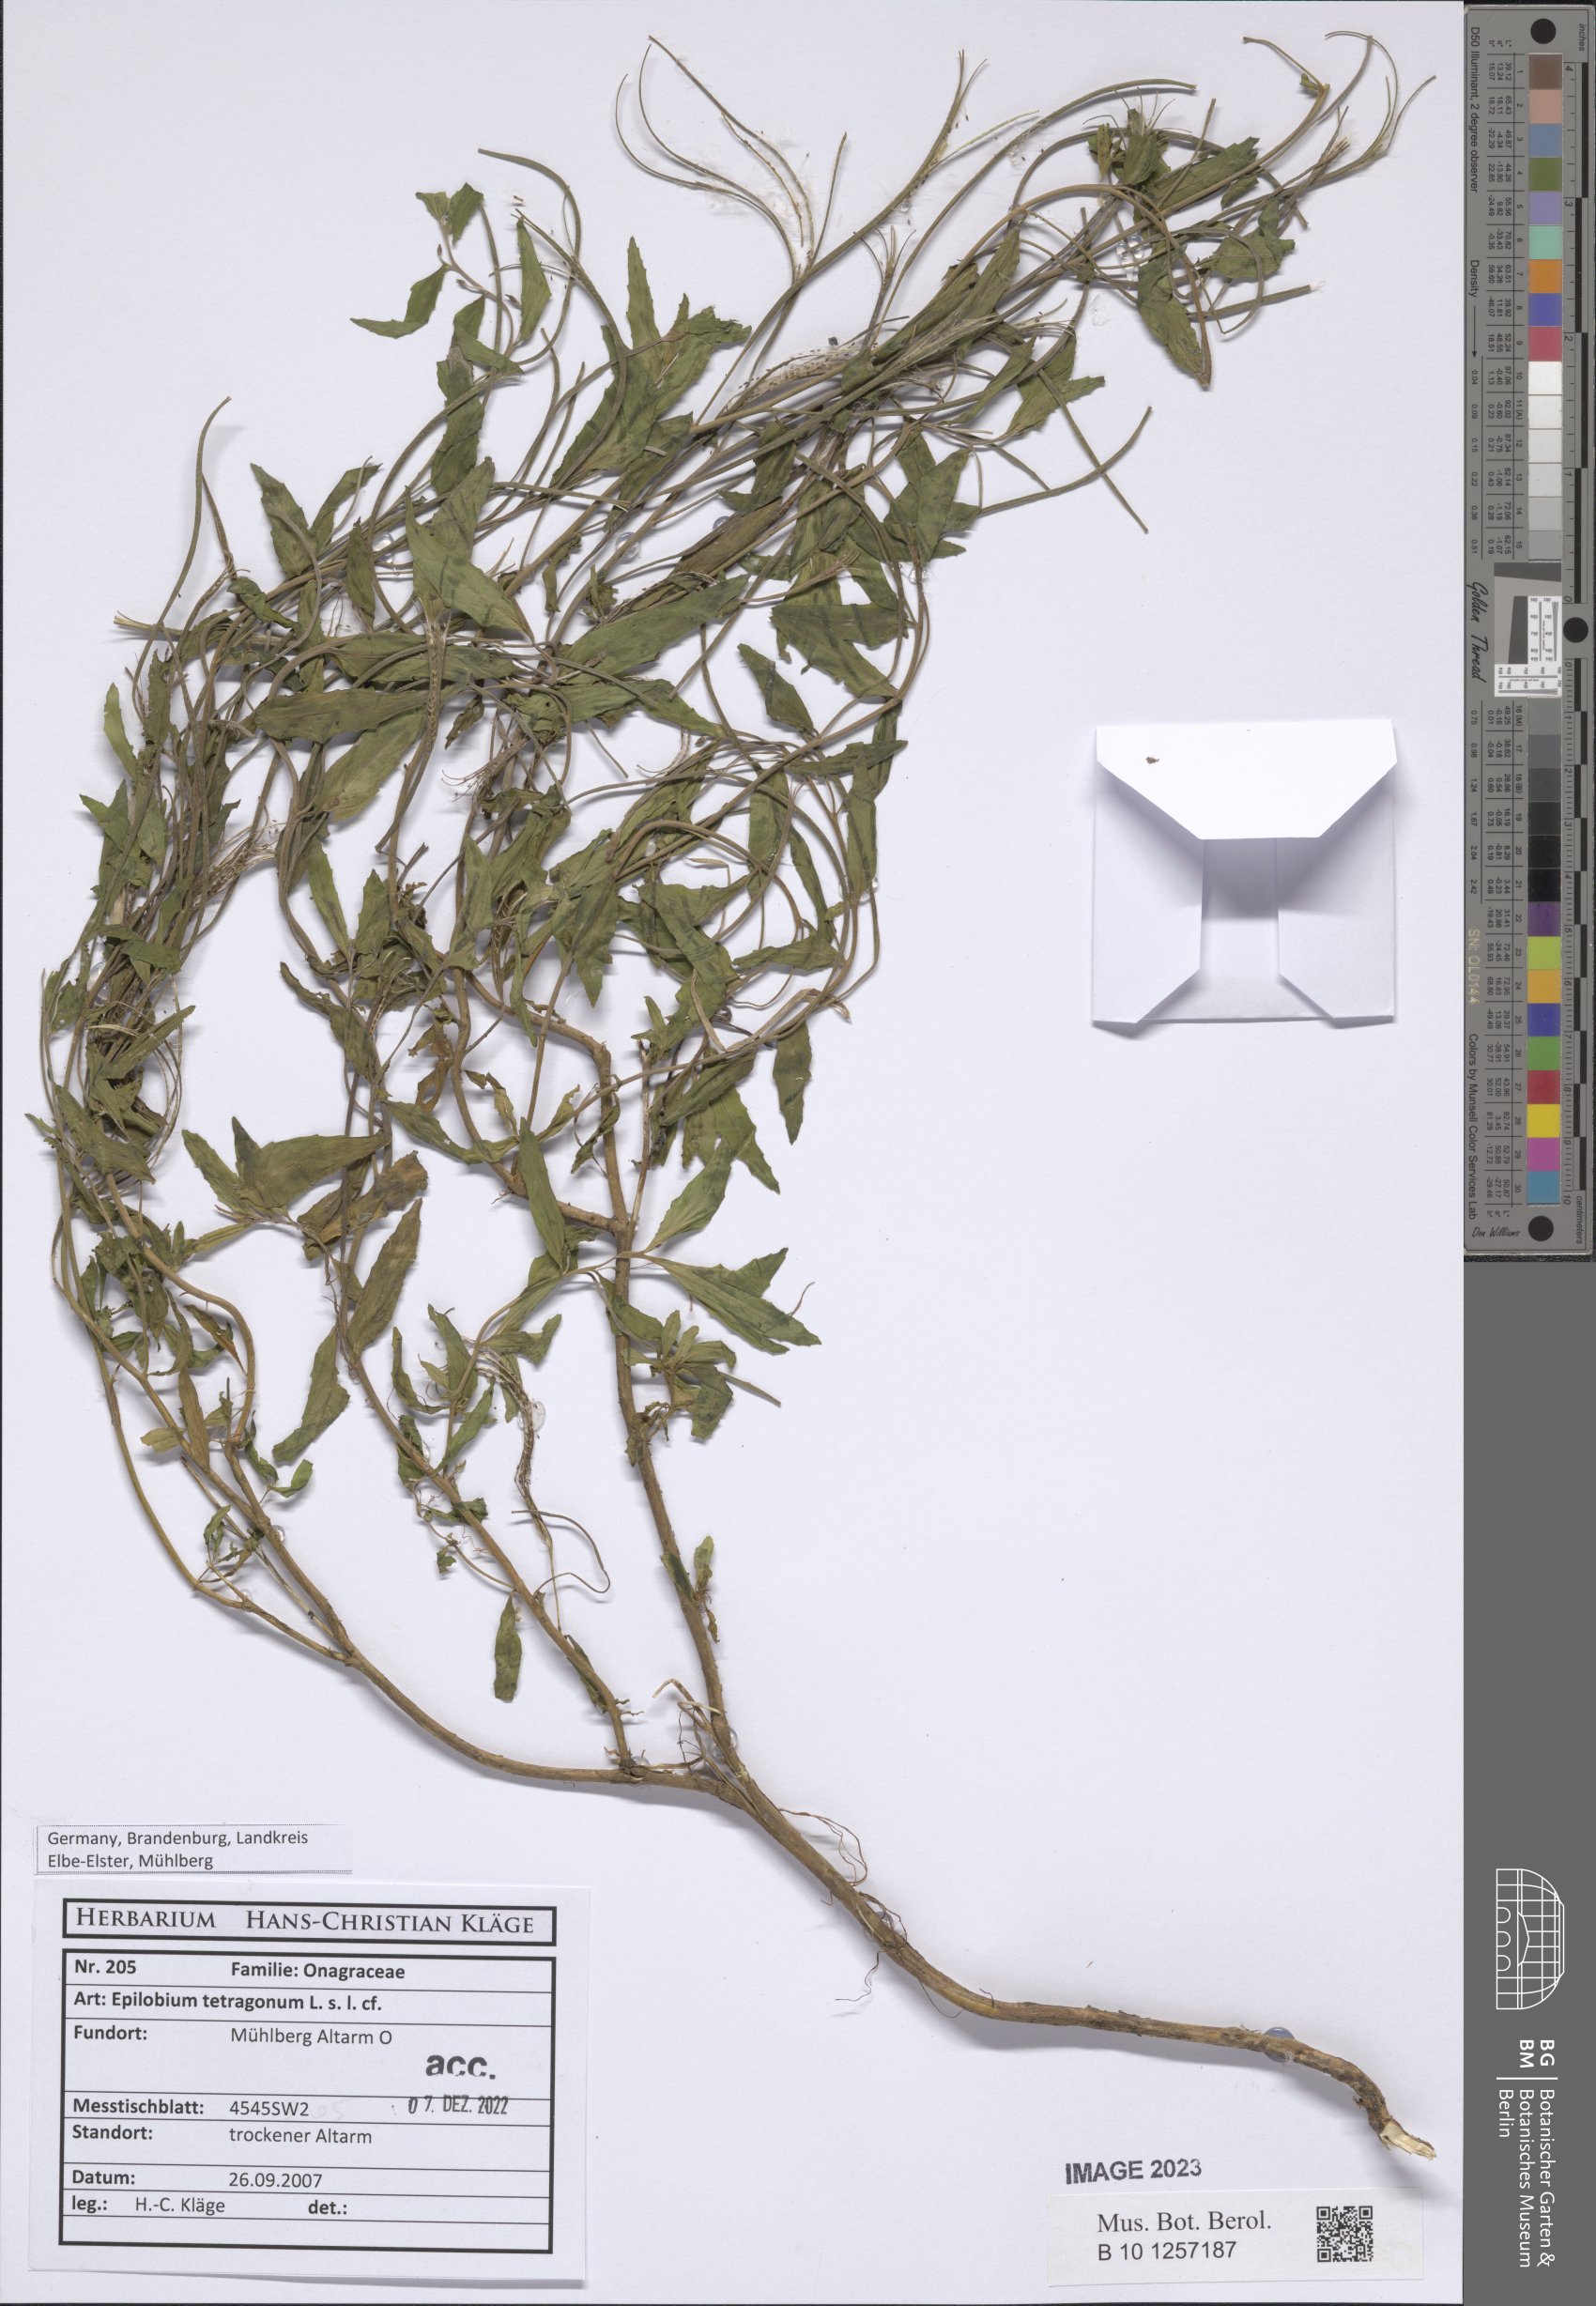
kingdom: Plantae
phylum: Tracheophyta
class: Magnoliopsida
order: Myrtales
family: Onagraceae
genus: Epilobium
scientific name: Epilobium tetragonum
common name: Square-stemmed willowherb
